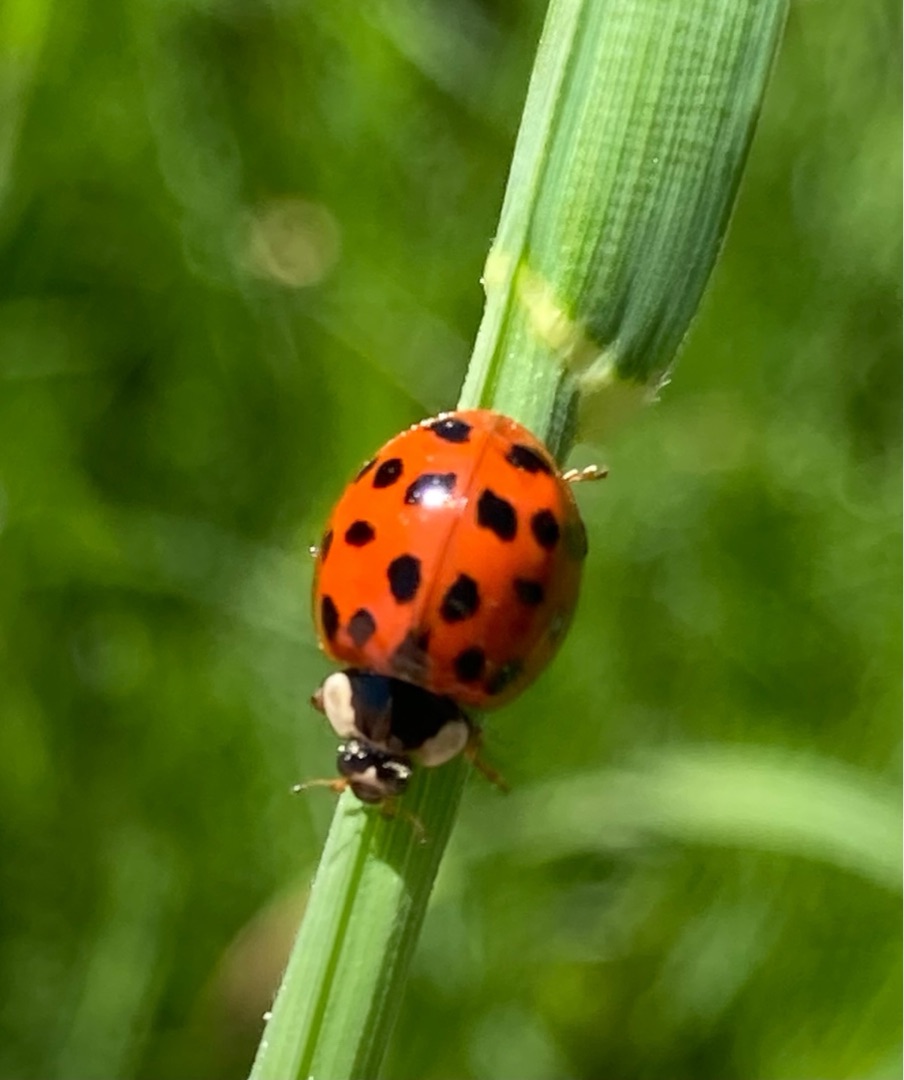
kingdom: Animalia
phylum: Arthropoda
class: Insecta
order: Coleoptera
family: Coccinellidae
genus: Harmonia
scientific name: Harmonia axyridis
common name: Harlekinmariehøne
